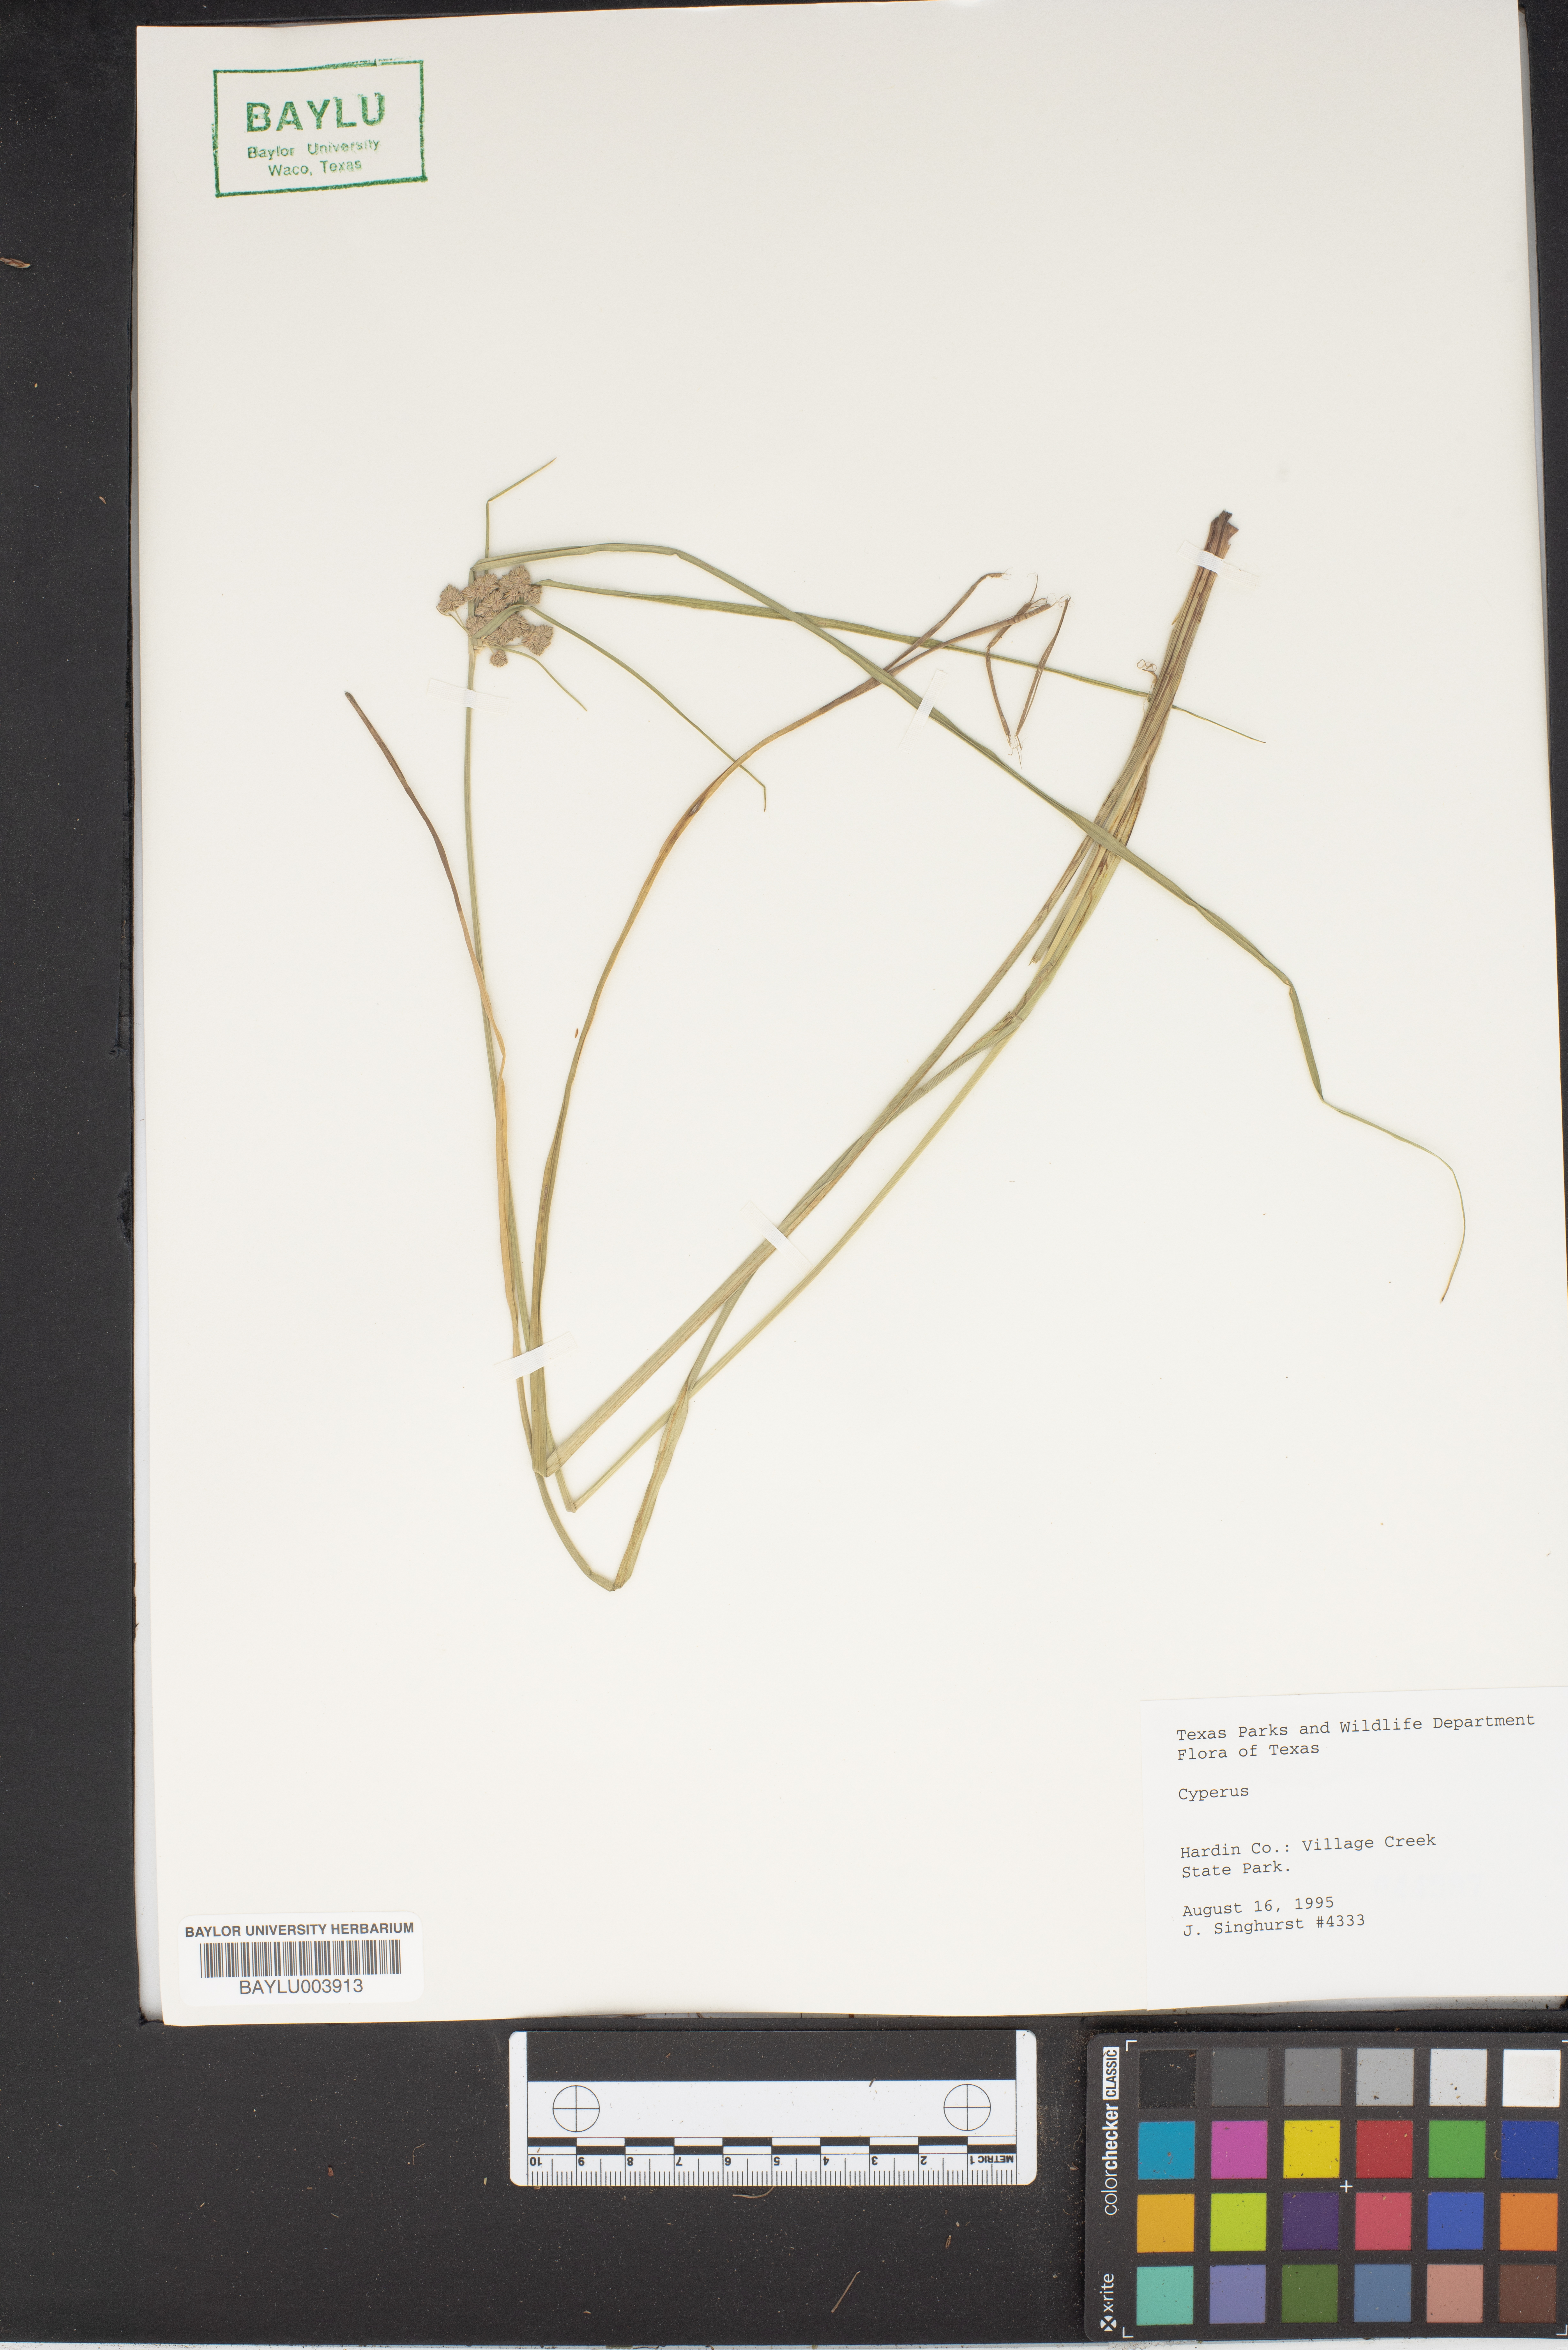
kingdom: Plantae
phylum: Tracheophyta
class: Liliopsida
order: Poales
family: Cyperaceae
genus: Cyperus
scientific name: Cyperus
